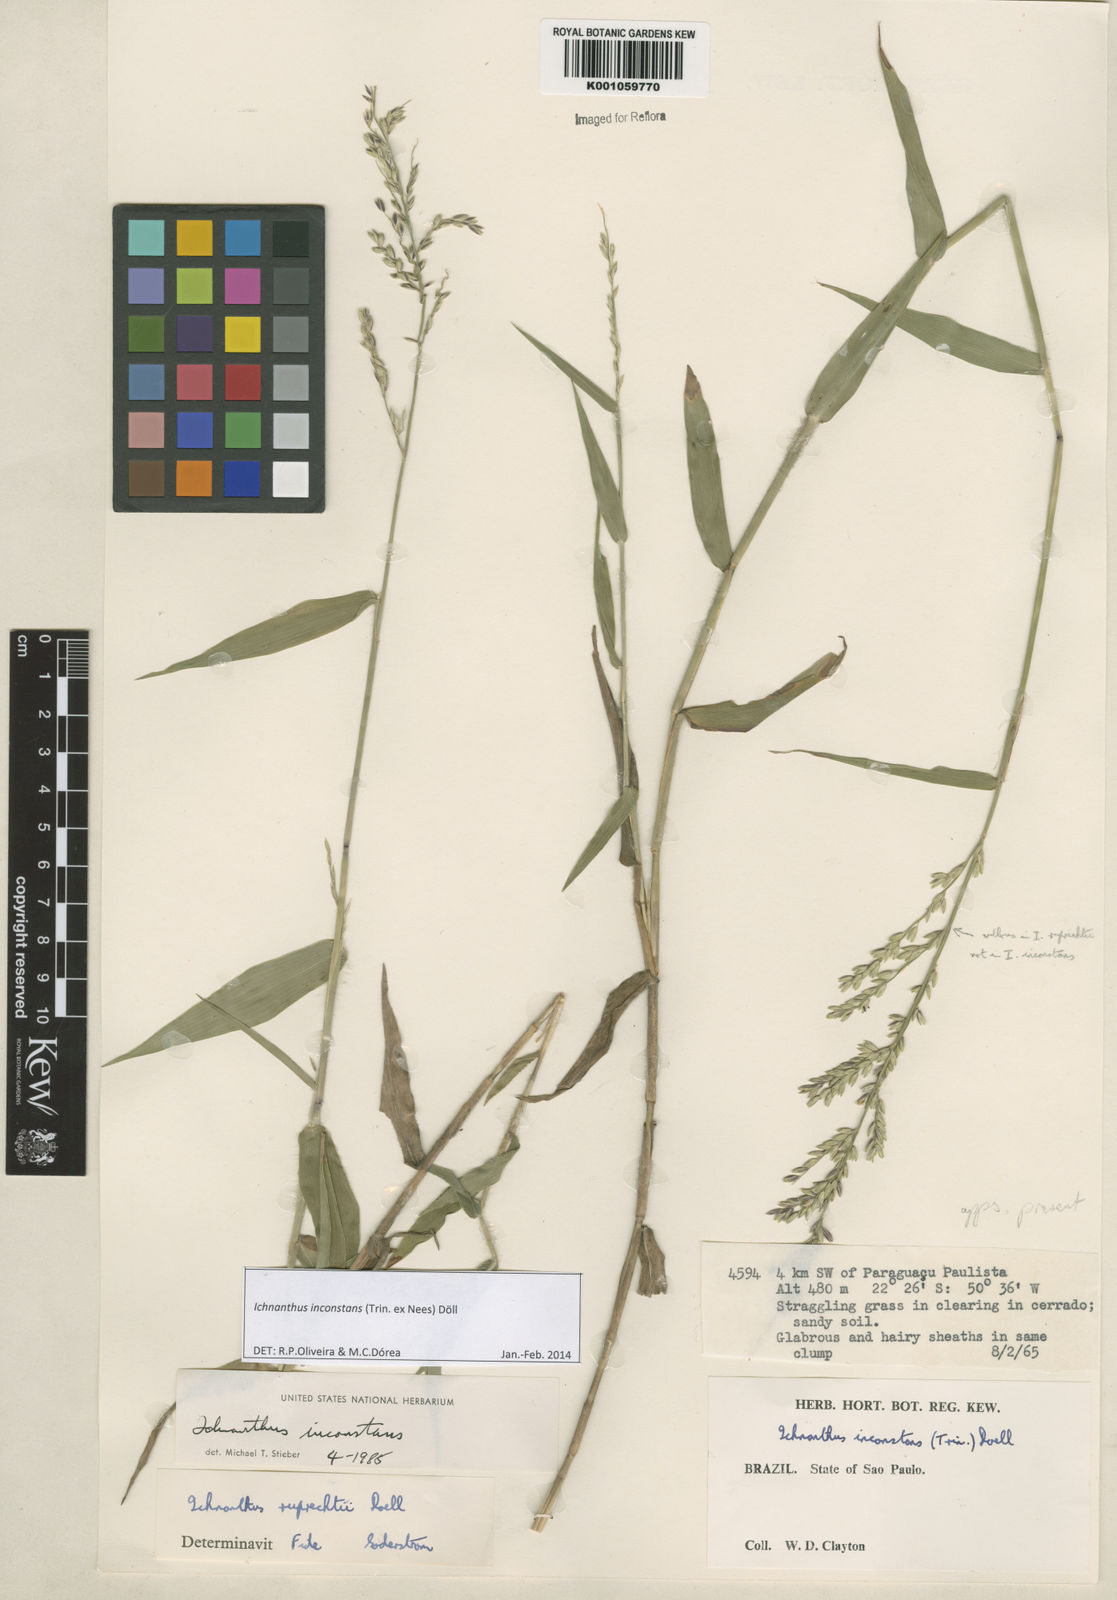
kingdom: Plantae
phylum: Tracheophyta
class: Liliopsida
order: Poales
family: Poaceae
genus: Ichnanthus
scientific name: Ichnanthus
